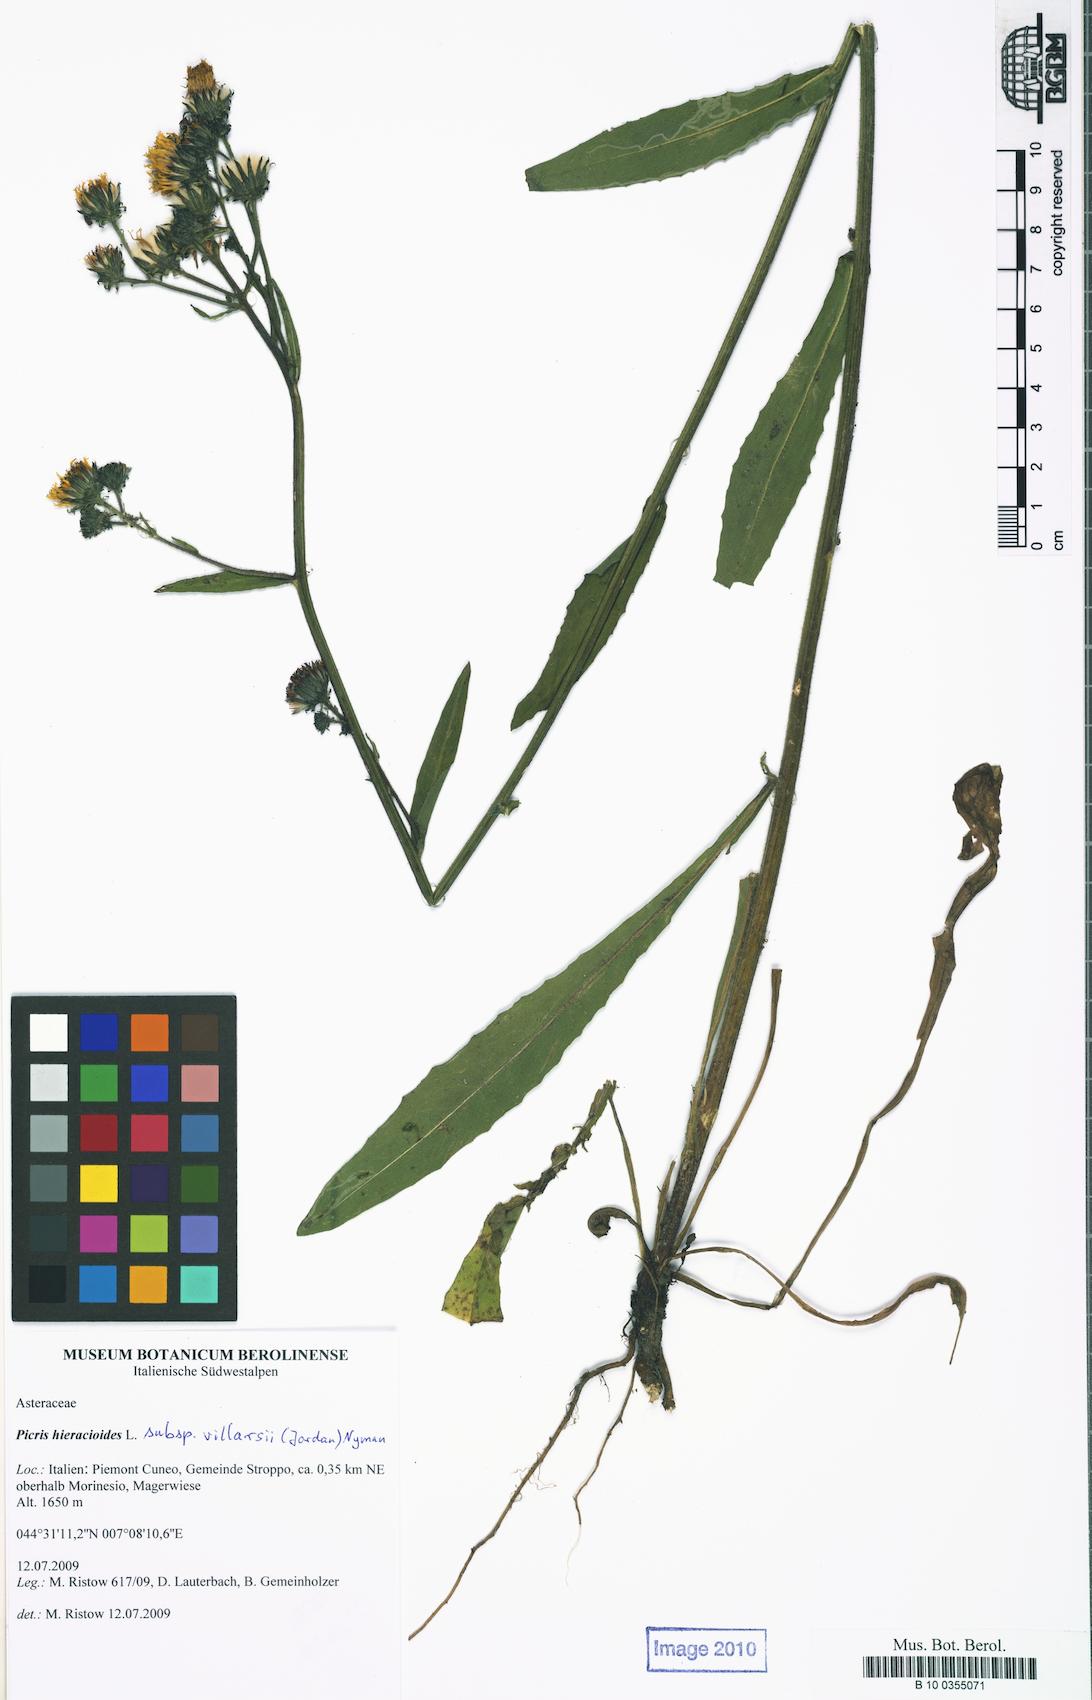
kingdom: Plantae
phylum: Tracheophyta
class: Magnoliopsida
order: Asterales
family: Asteraceae
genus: Picris
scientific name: Picris hieracioides
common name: Hawkweed oxtongue
